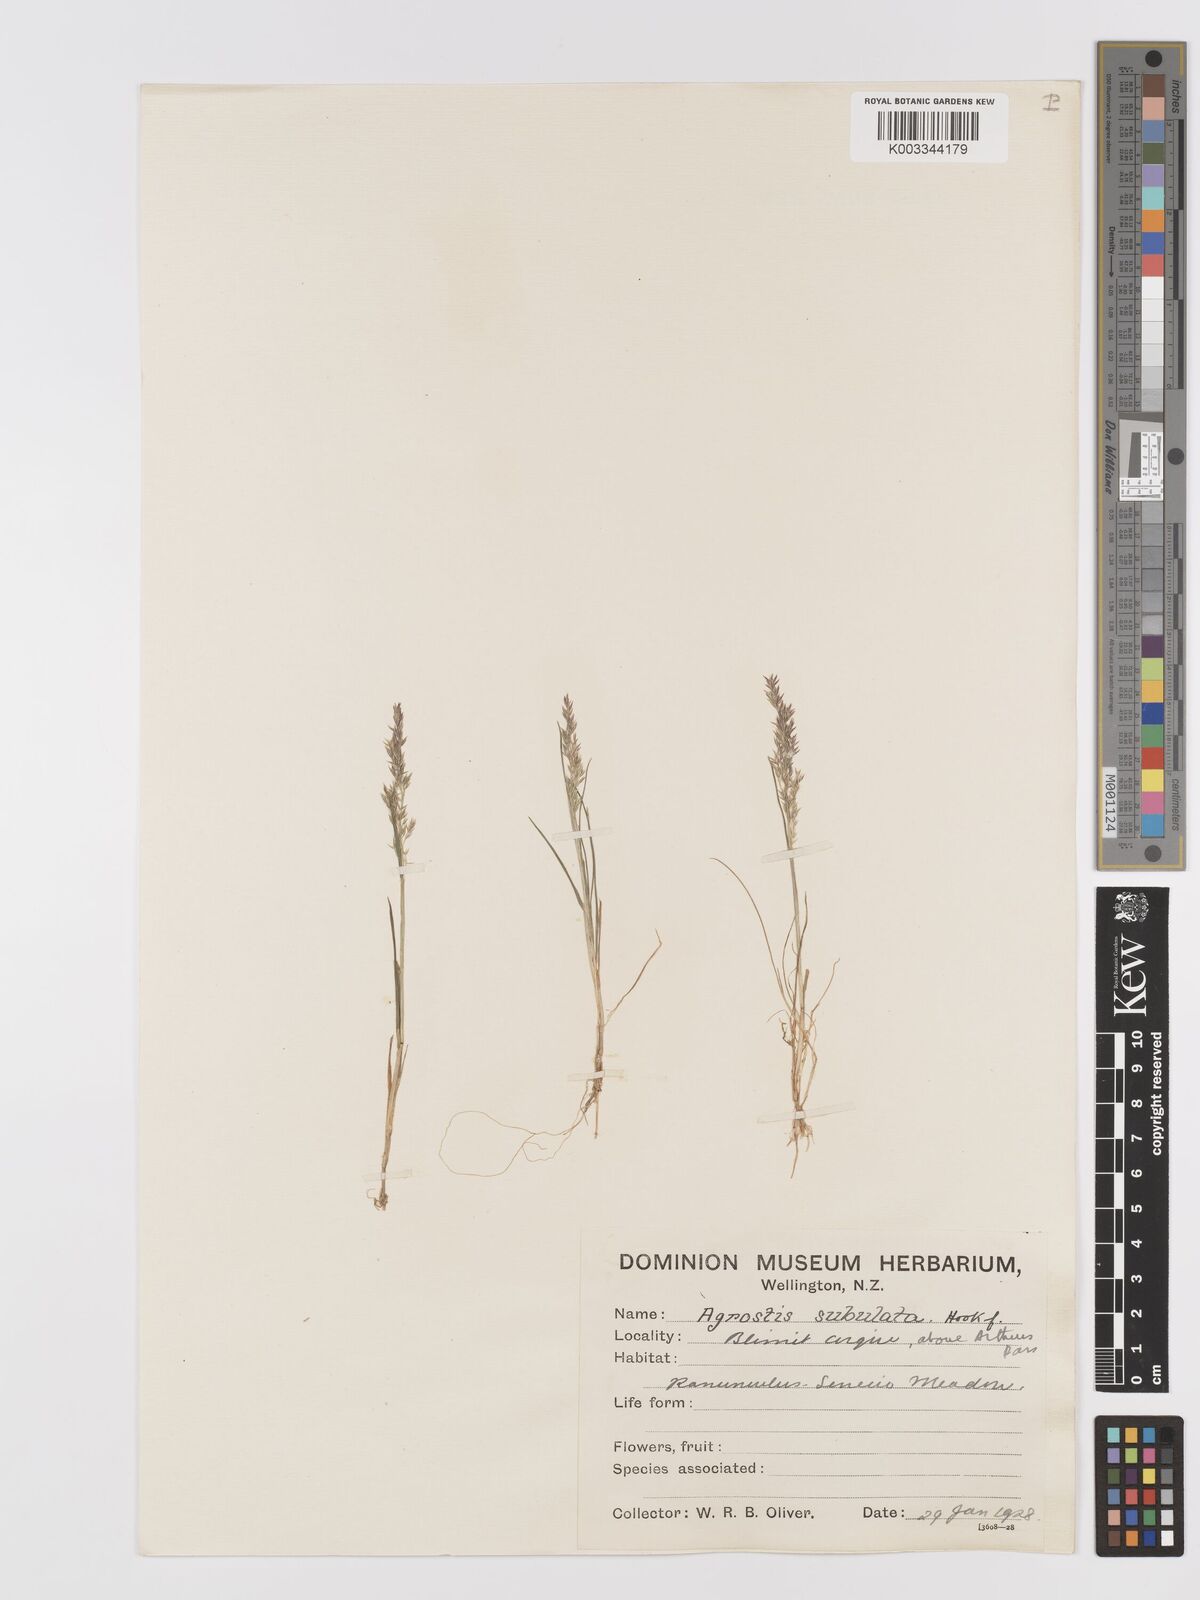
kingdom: Plantae
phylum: Tracheophyta
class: Liliopsida
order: Poales
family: Poaceae
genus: Agrostis
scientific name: Agrostis personata
